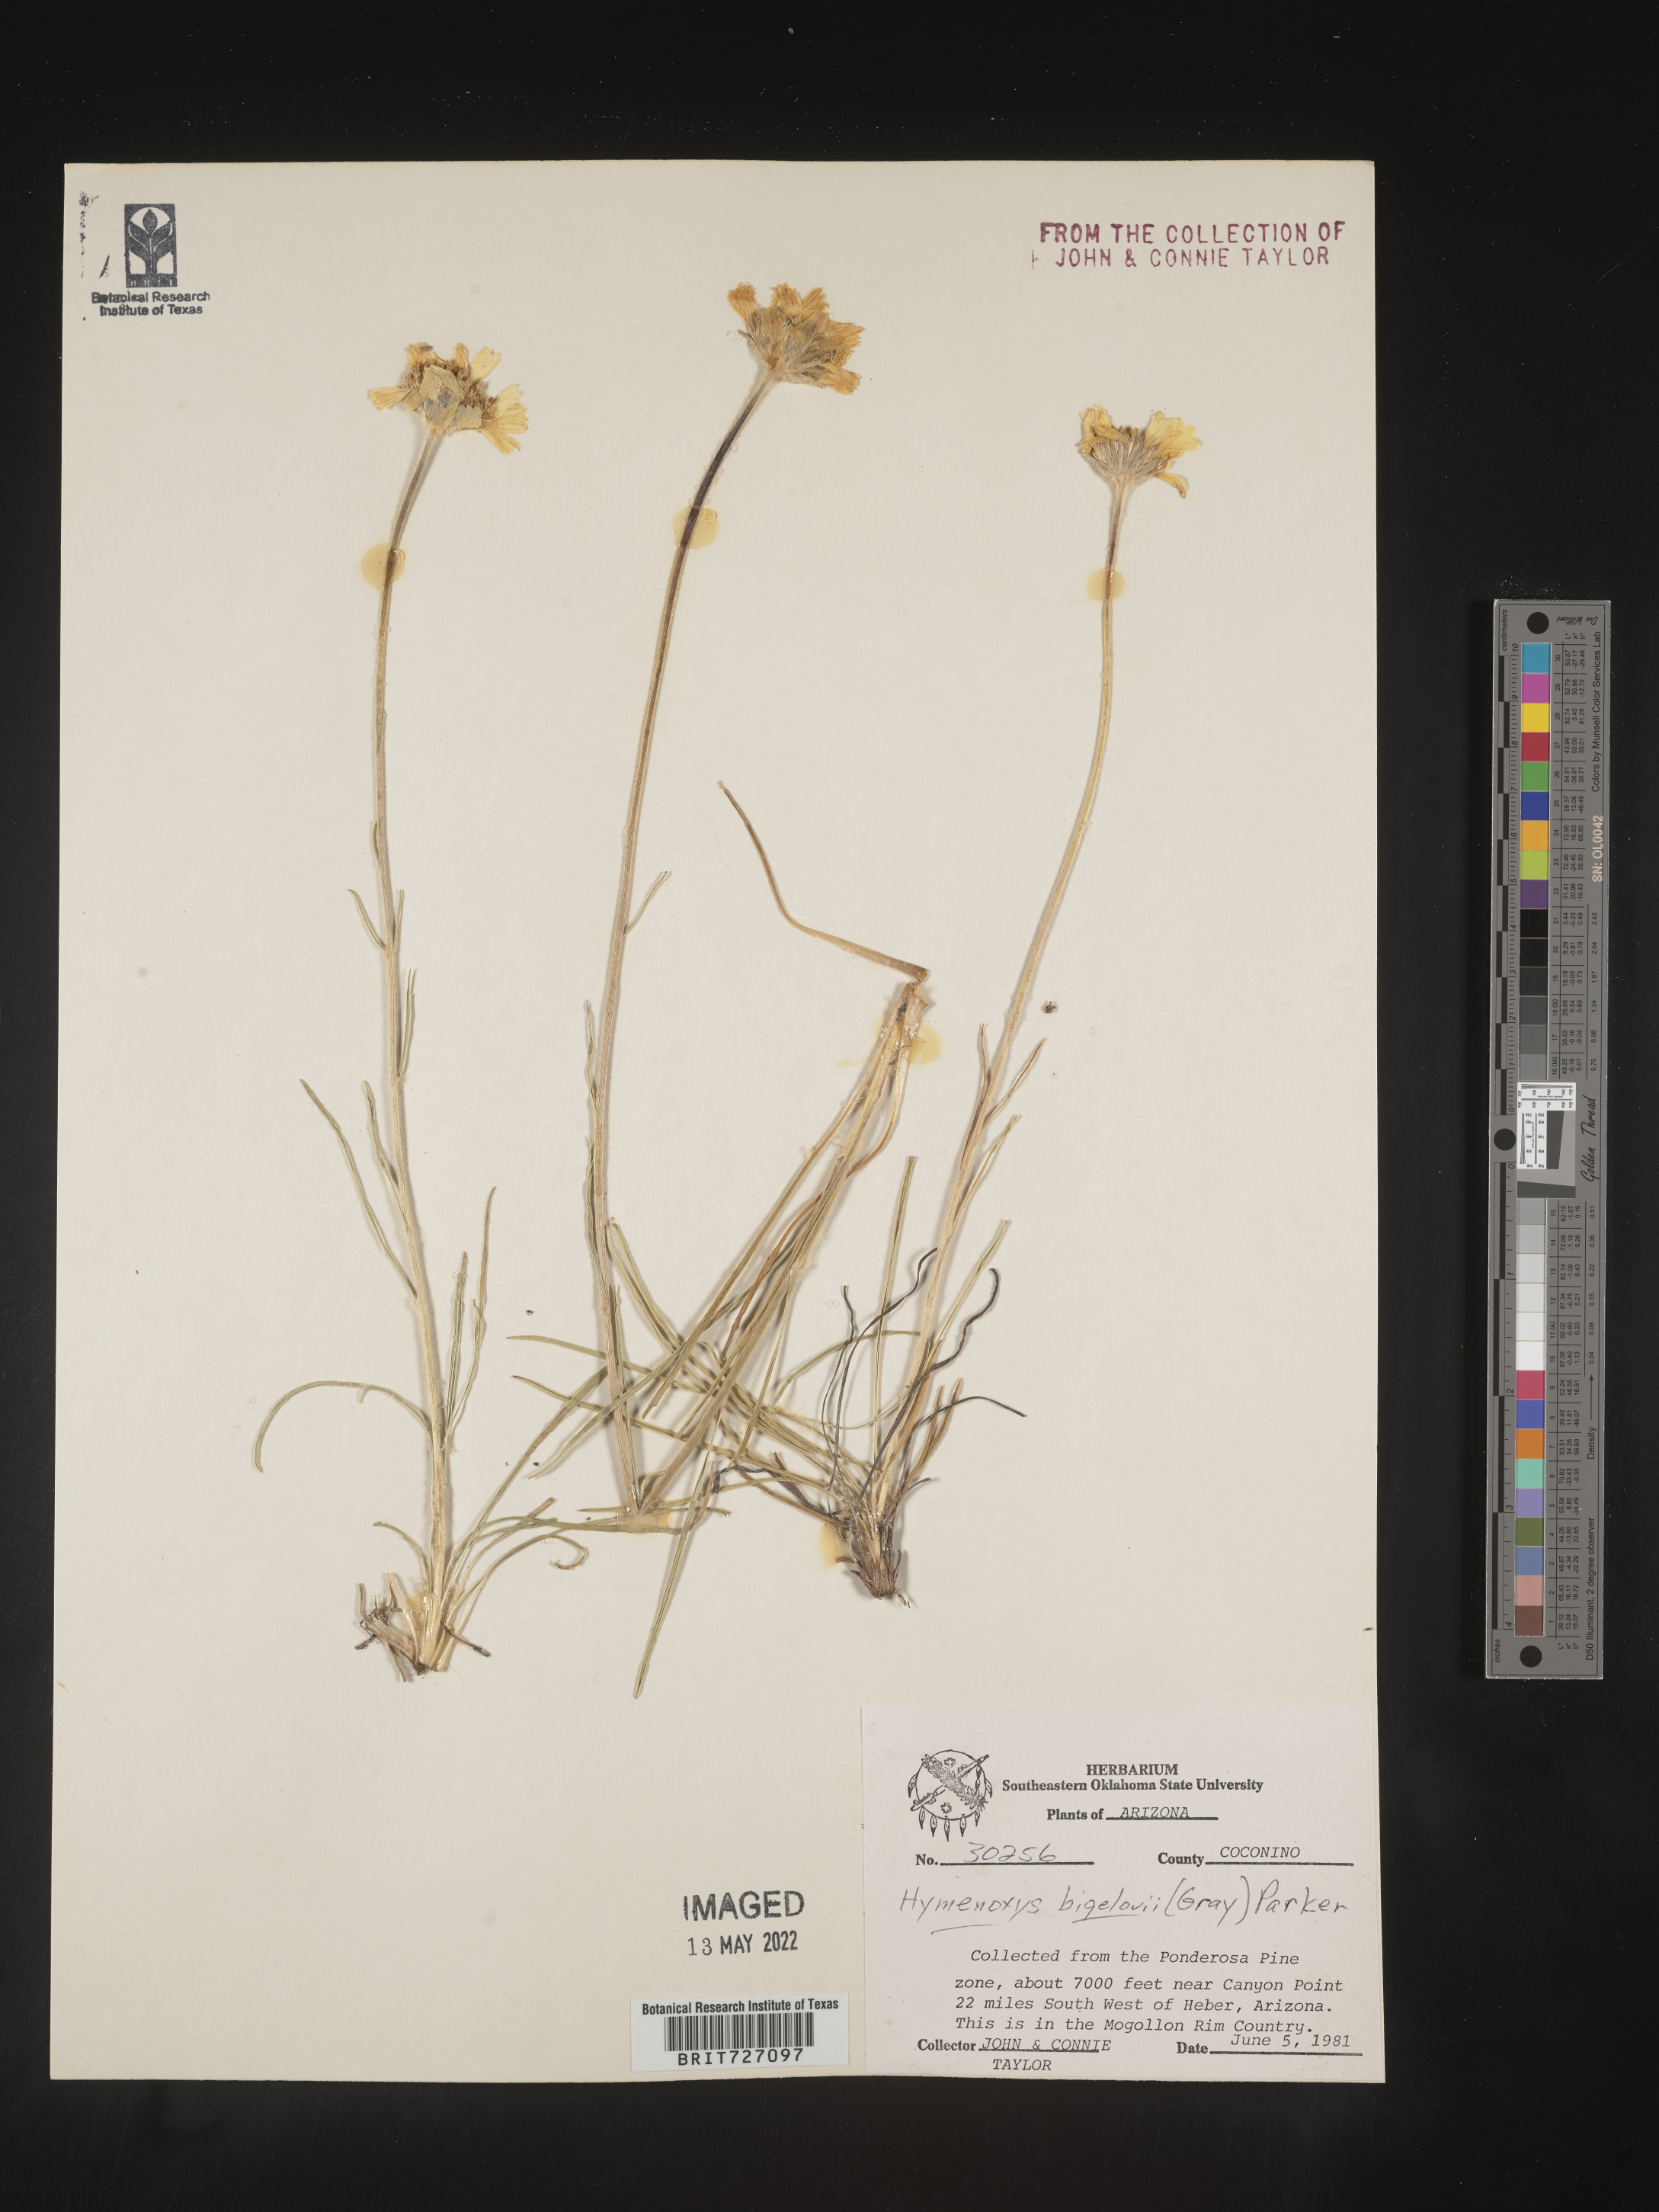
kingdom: Plantae
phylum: Tracheophyta
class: Magnoliopsida
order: Asterales
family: Asteraceae
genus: Hymenoxys
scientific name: Hymenoxys bigelovii
